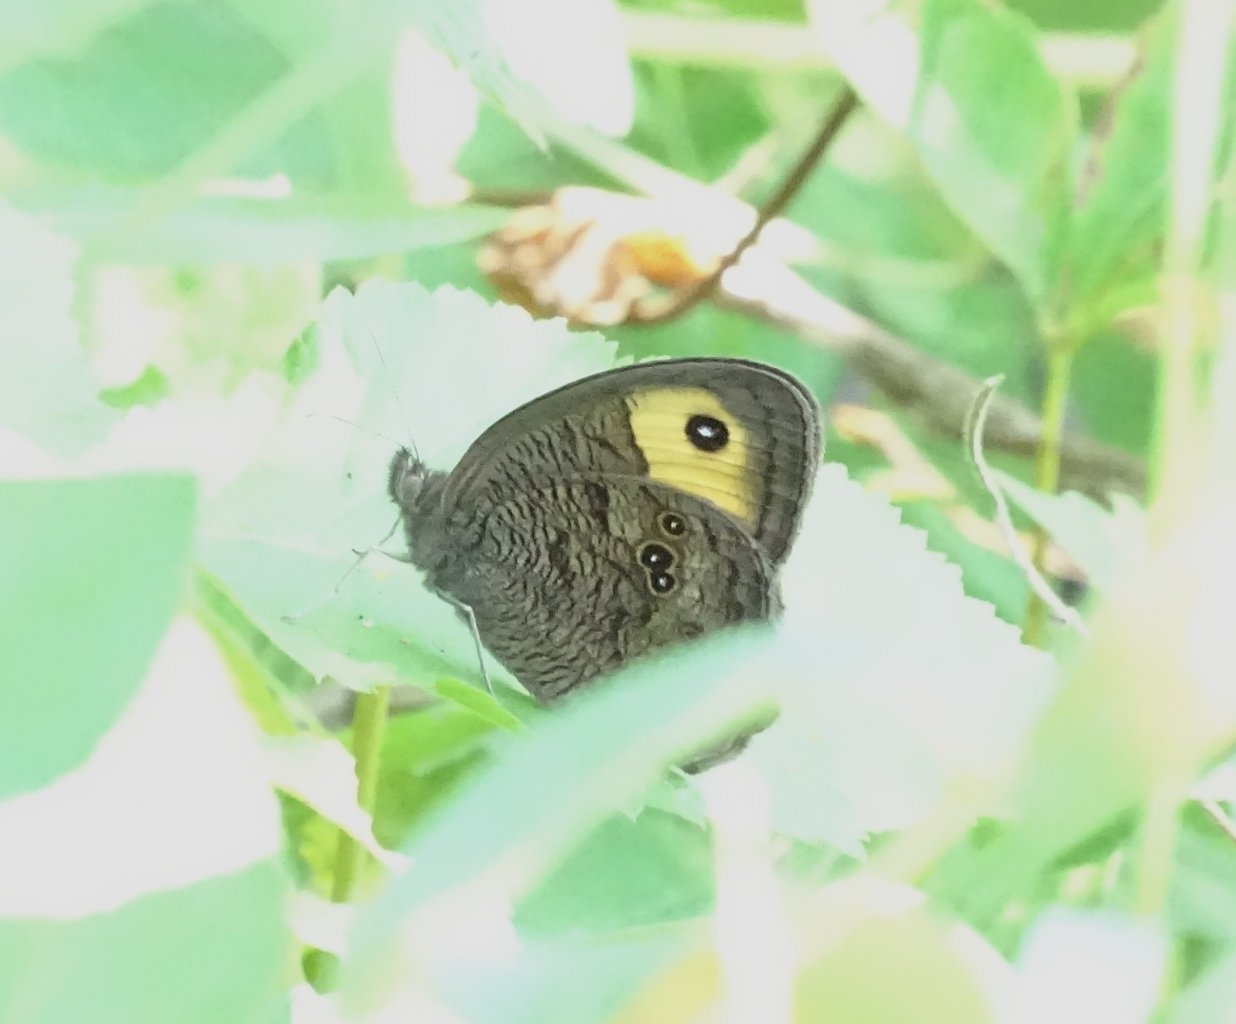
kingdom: Animalia
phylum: Arthropoda
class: Insecta
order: Lepidoptera
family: Nymphalidae
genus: Cercyonis
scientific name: Cercyonis pegala
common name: Common Wood-Nymph
